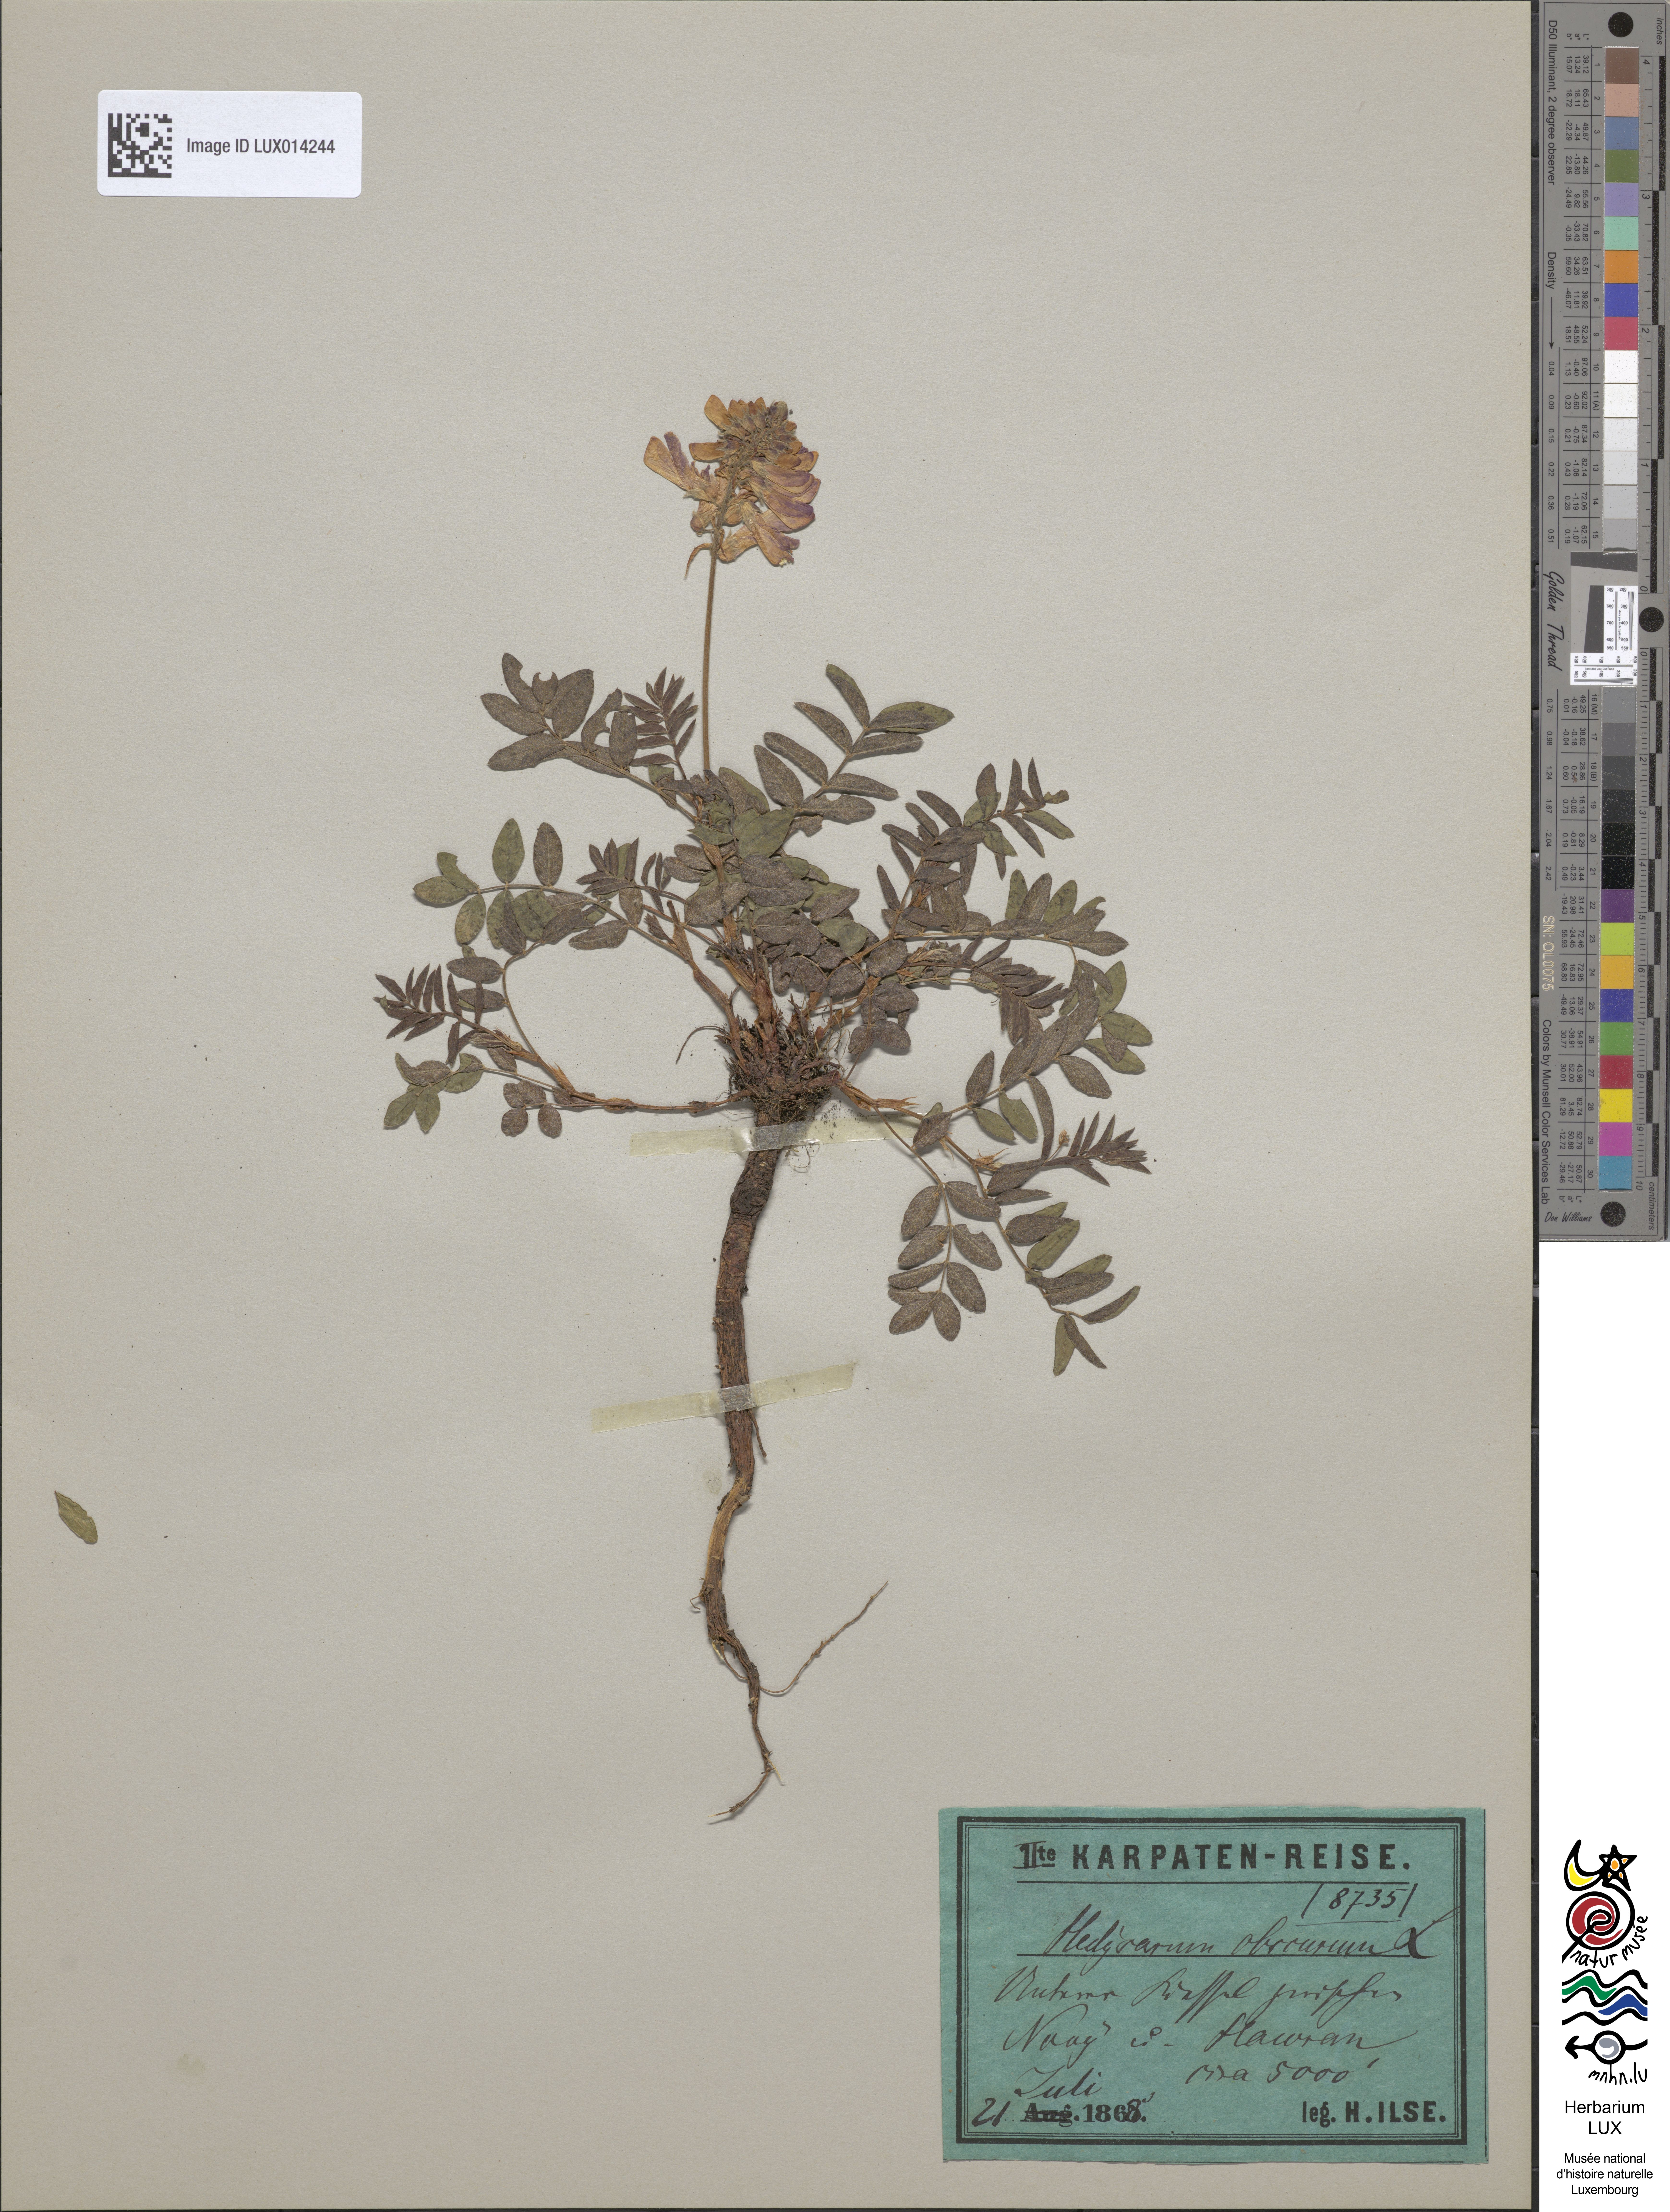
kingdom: Plantae
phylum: Tracheophyta
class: Magnoliopsida
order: Fabales
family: Fabaceae
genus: Hedysarum
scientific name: Hedysarum hedysaroides
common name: Alpine french-honeysuckle
